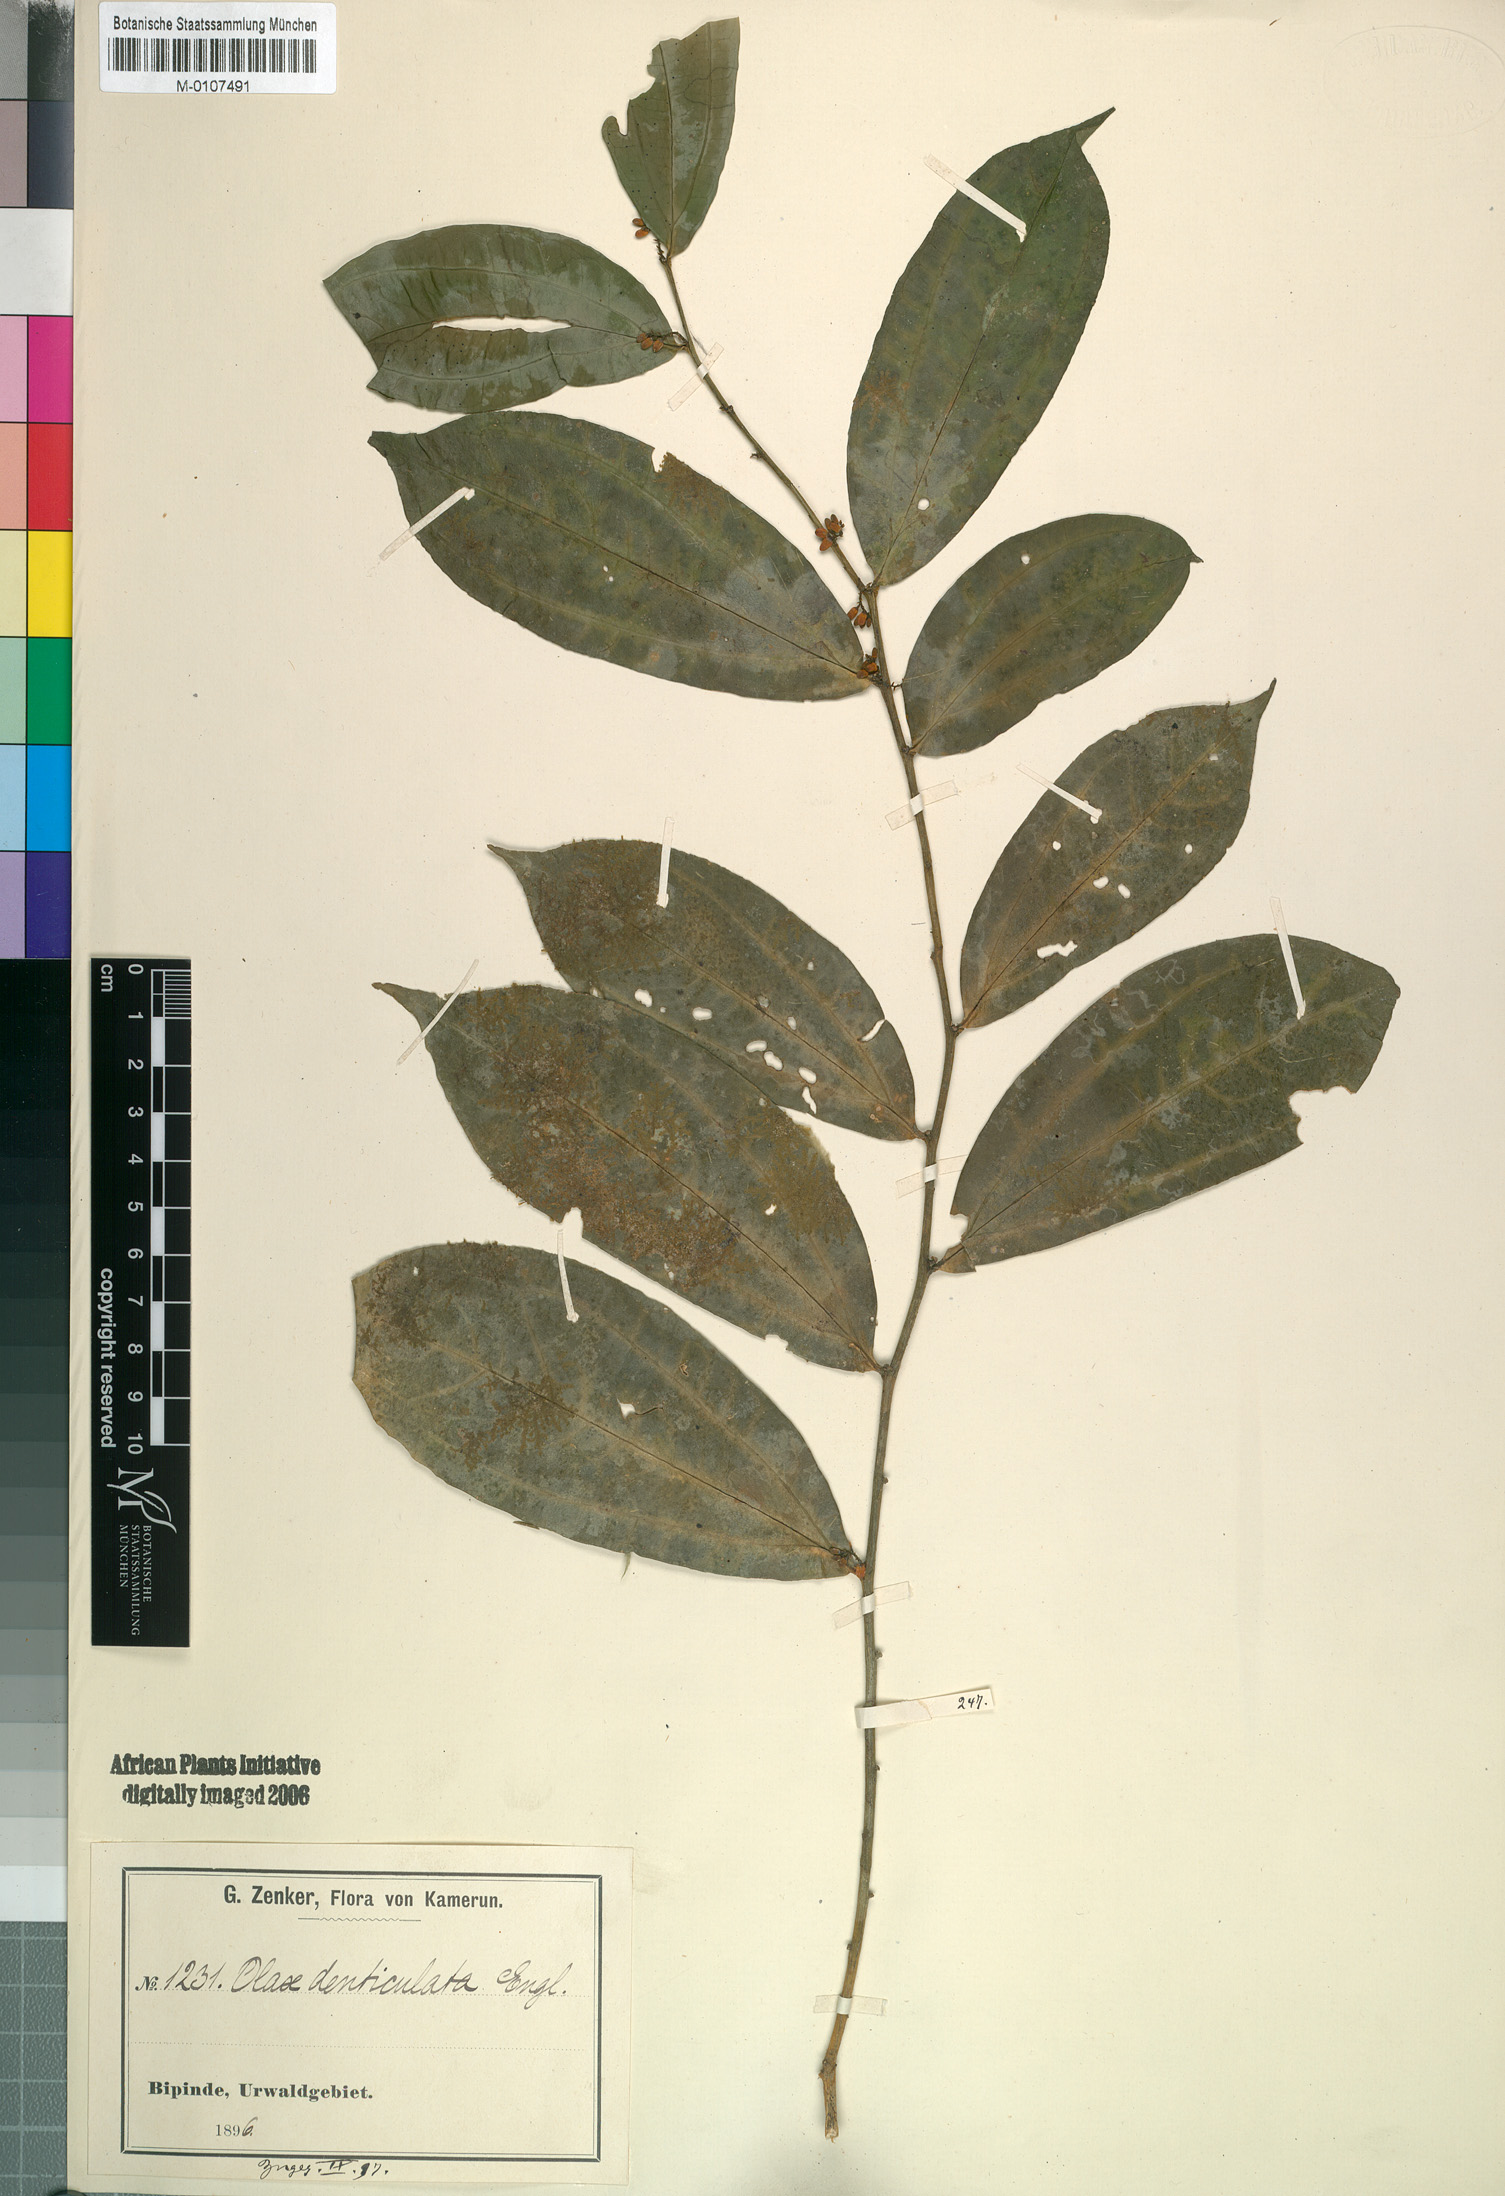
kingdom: Plantae
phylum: Tracheophyta
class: Magnoliopsida
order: Santalales
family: Olacaceae
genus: Olax
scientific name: Olax triplinervia
